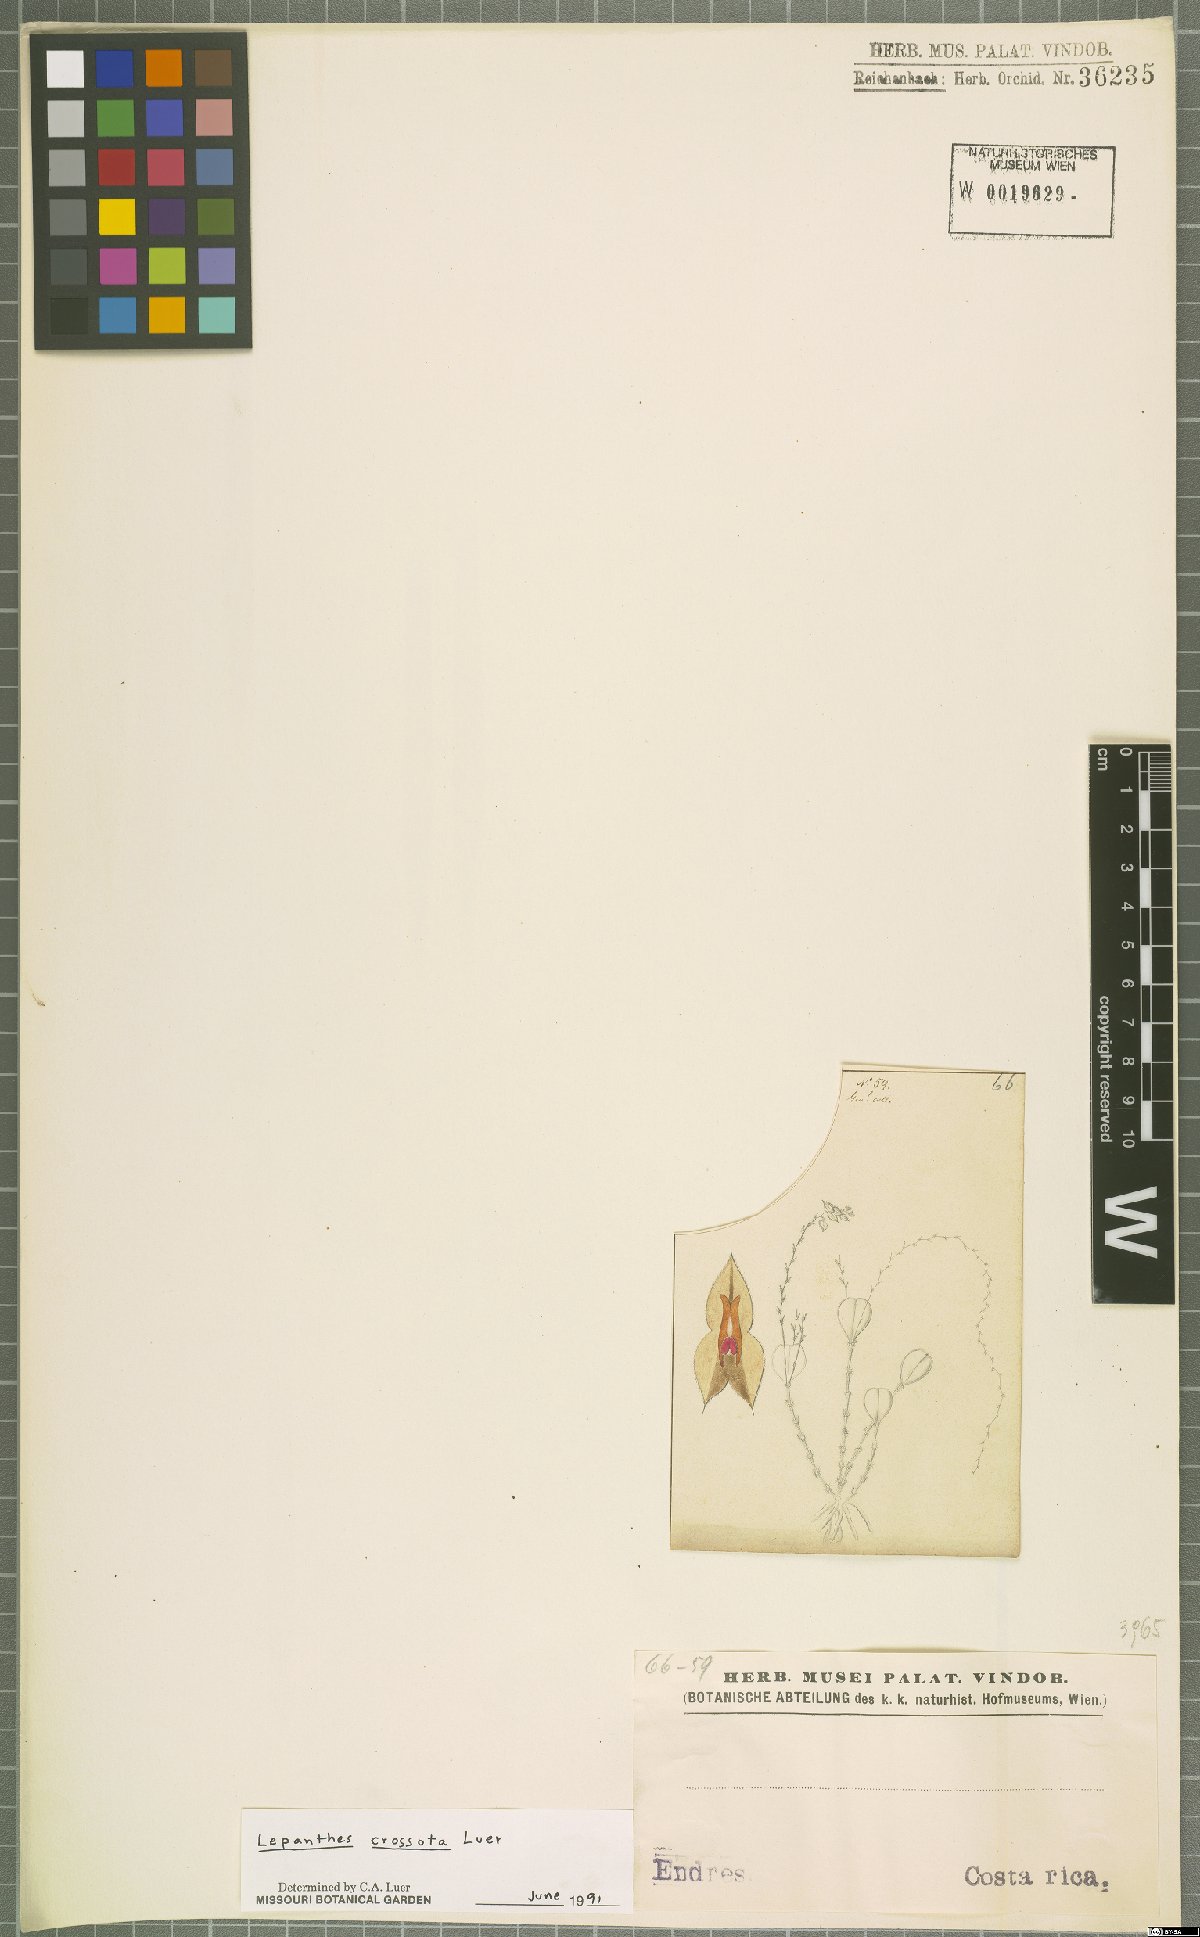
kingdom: Plantae
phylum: Tracheophyta
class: Liliopsida
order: Asparagales
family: Orchidaceae
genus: Lepanthes
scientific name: Lepanthes jimenezii
